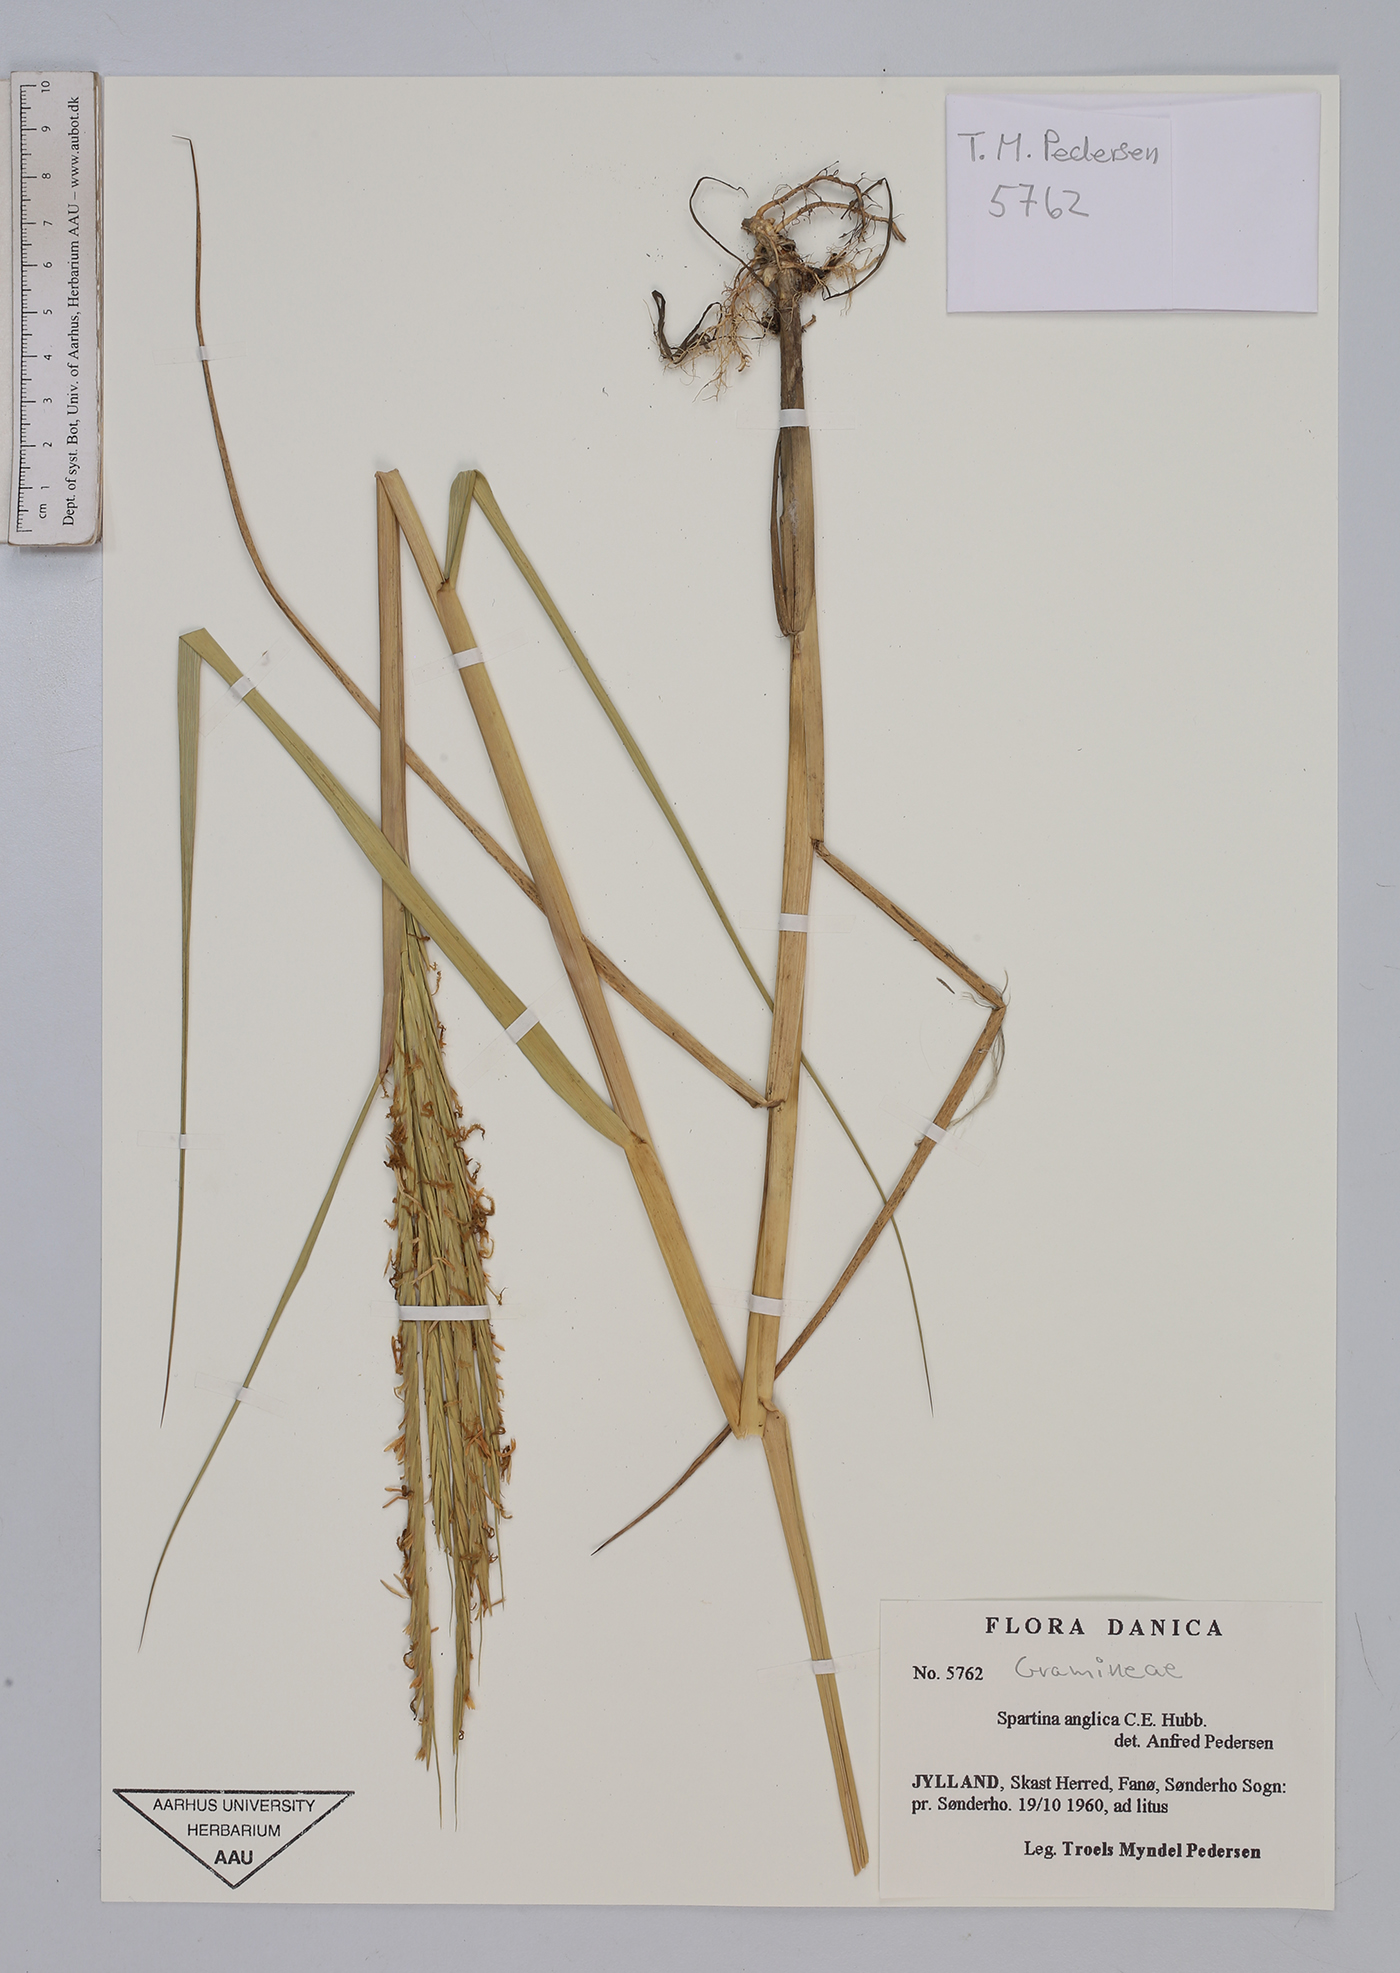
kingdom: Plantae
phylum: Tracheophyta
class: Liliopsida
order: Poales
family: Poaceae
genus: Sporobolus
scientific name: Sporobolus anglicus
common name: English cordgrass
